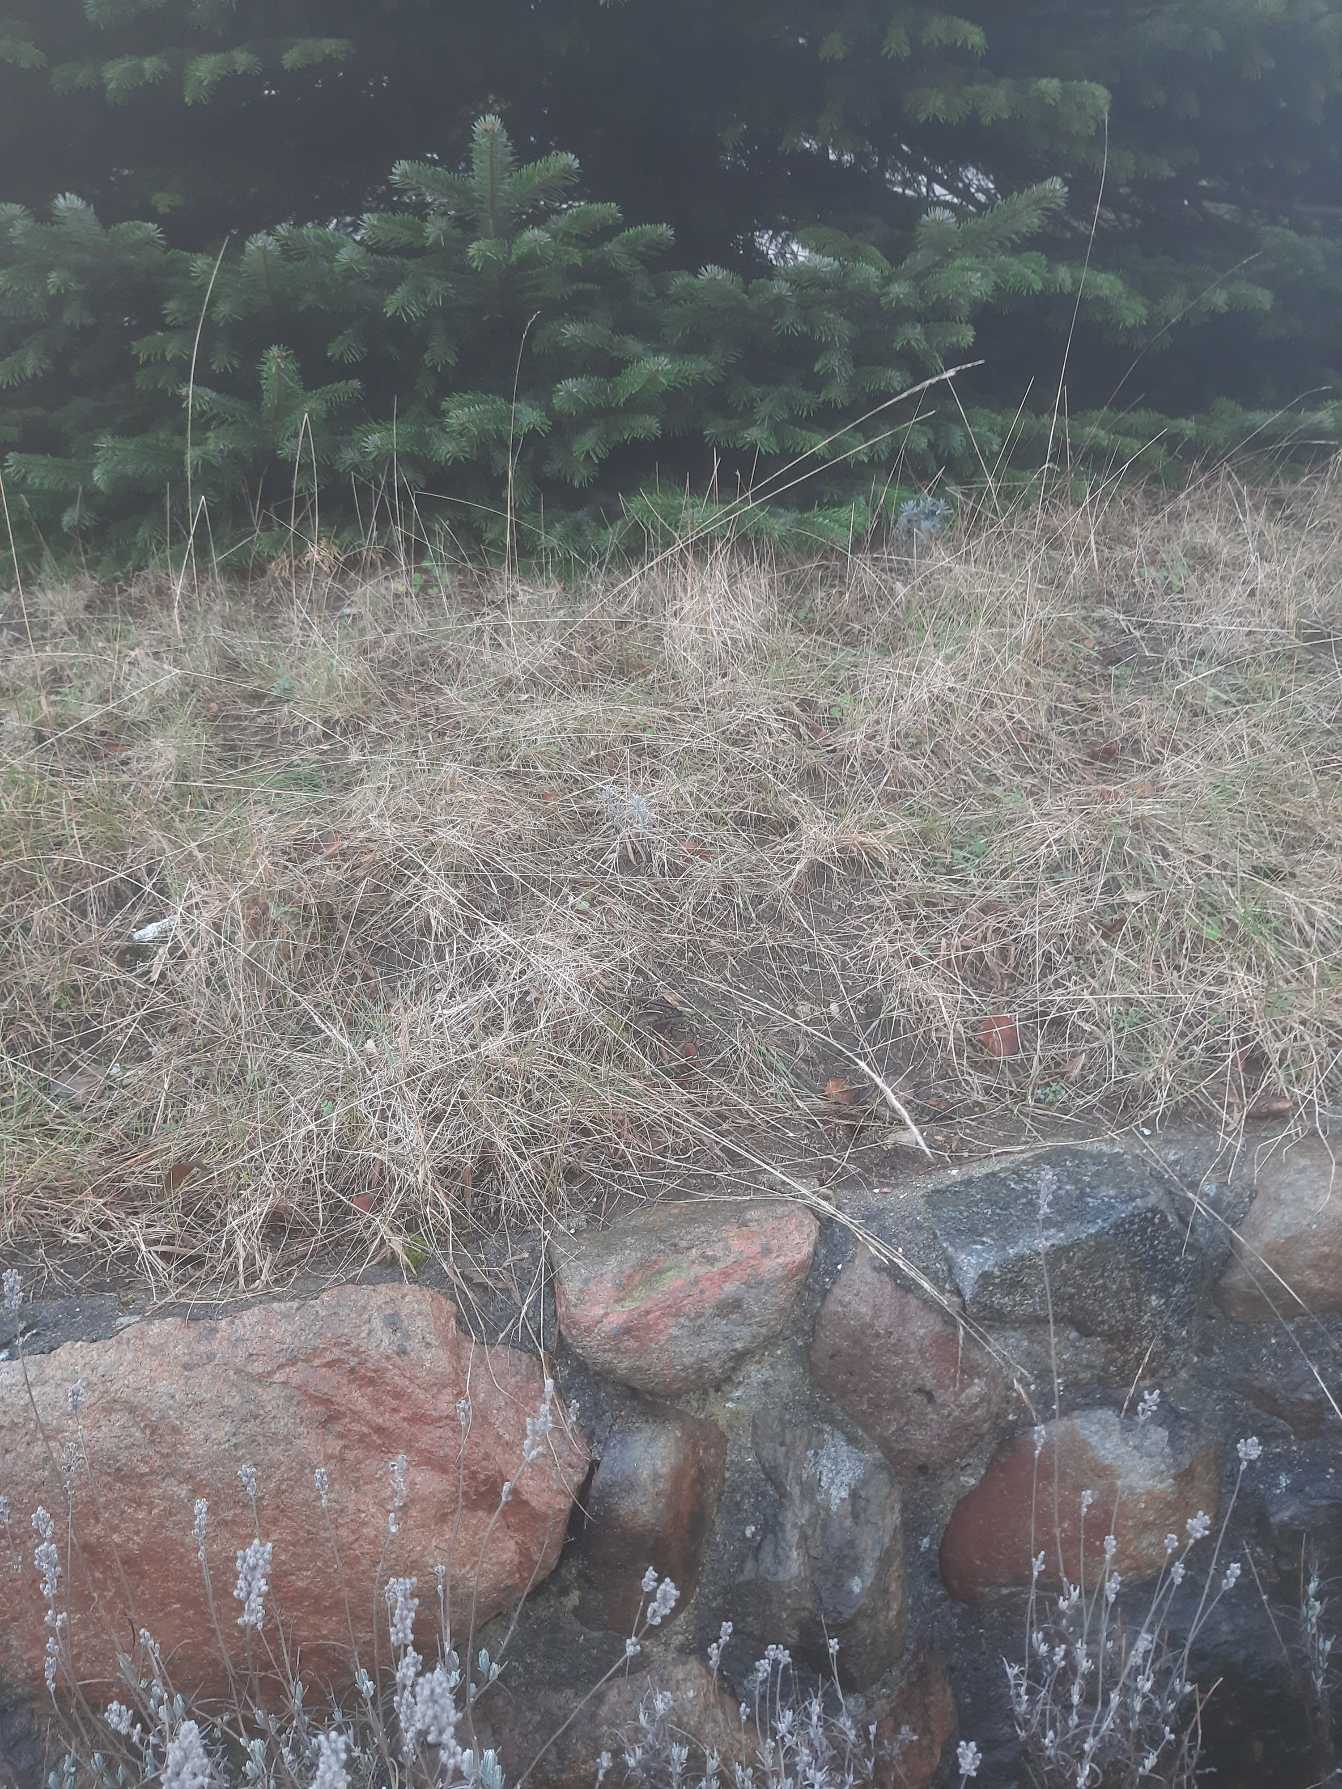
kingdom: Plantae
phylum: Tracheophyta
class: Magnoliopsida
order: Lamiales
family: Lamiaceae
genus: Lavandula
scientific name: Lavandula angustifolia
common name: Ægte lavendel
